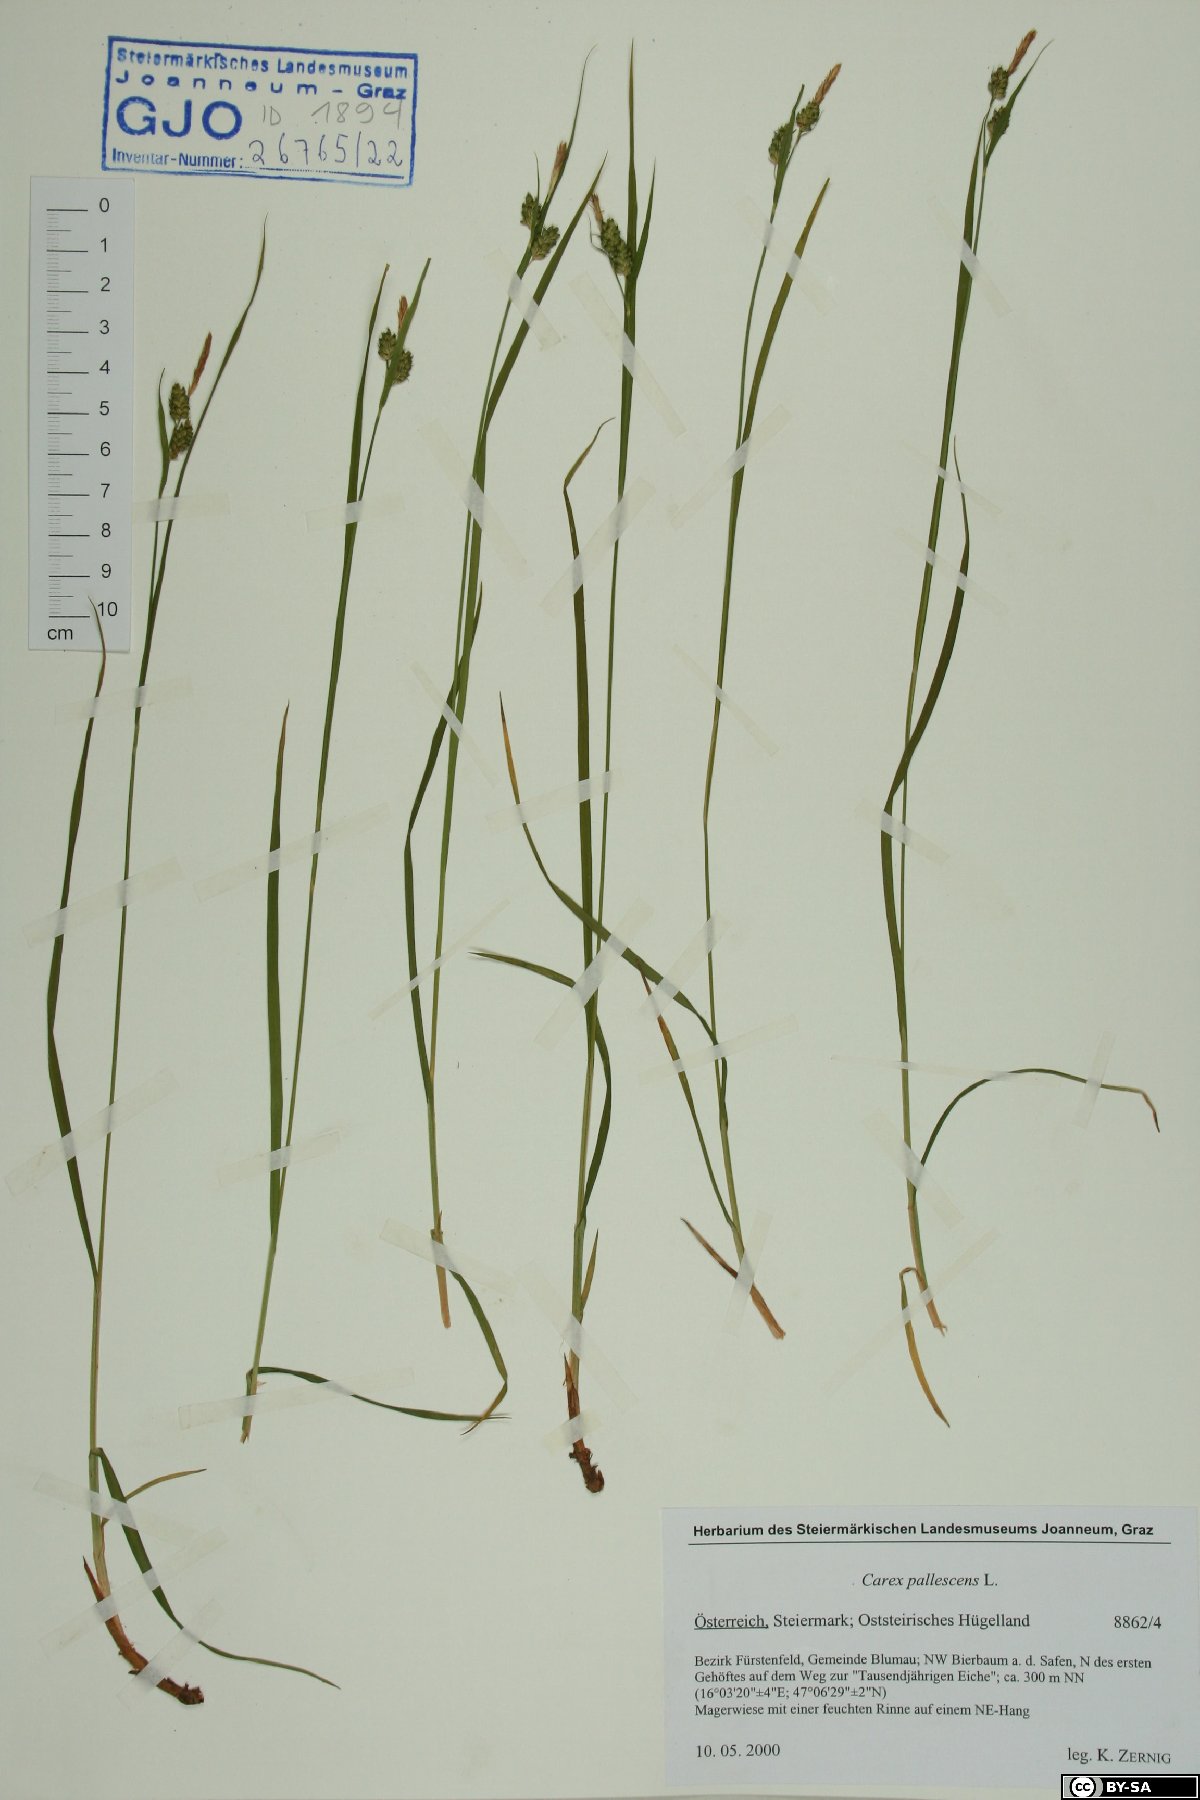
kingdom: Plantae
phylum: Tracheophyta
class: Liliopsida
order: Poales
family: Cyperaceae
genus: Carex
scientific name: Carex pallescens
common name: Pale sedge
